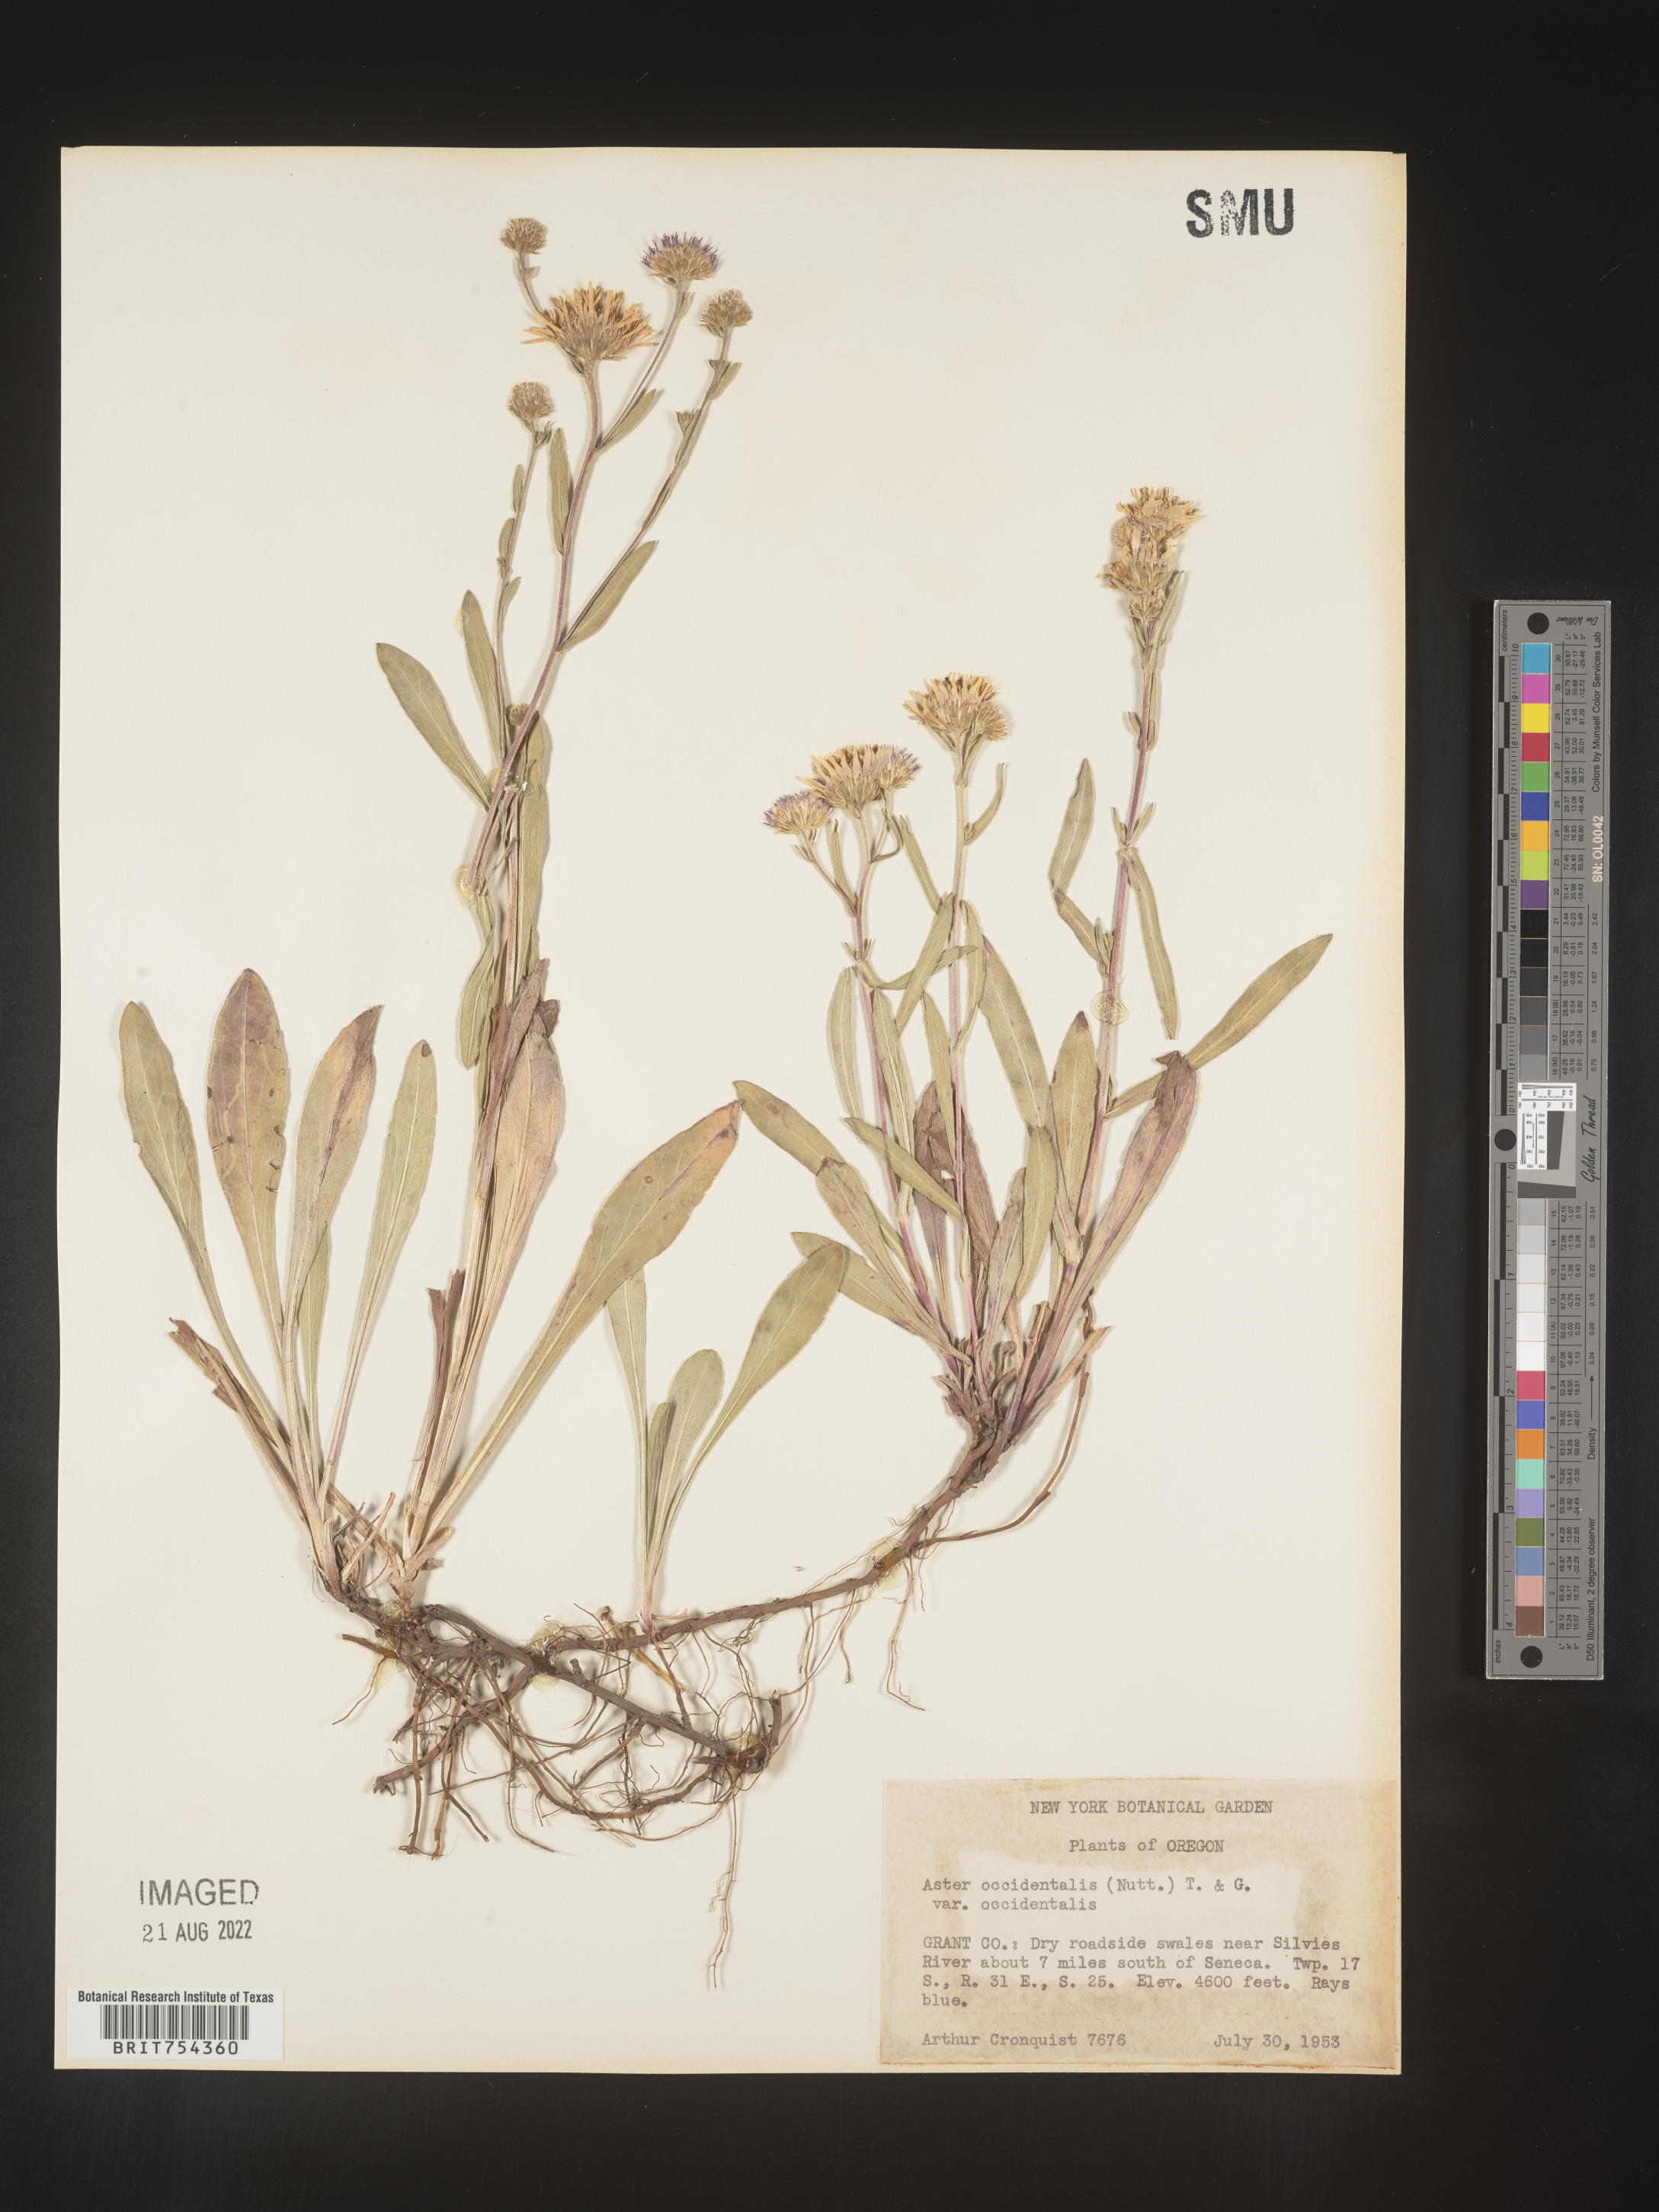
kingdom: Plantae
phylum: Tracheophyta
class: Magnoliopsida
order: Asterales
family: Asteraceae
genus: Symphyotrichum
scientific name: Symphyotrichum spathulatum
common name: Western mountain aster
